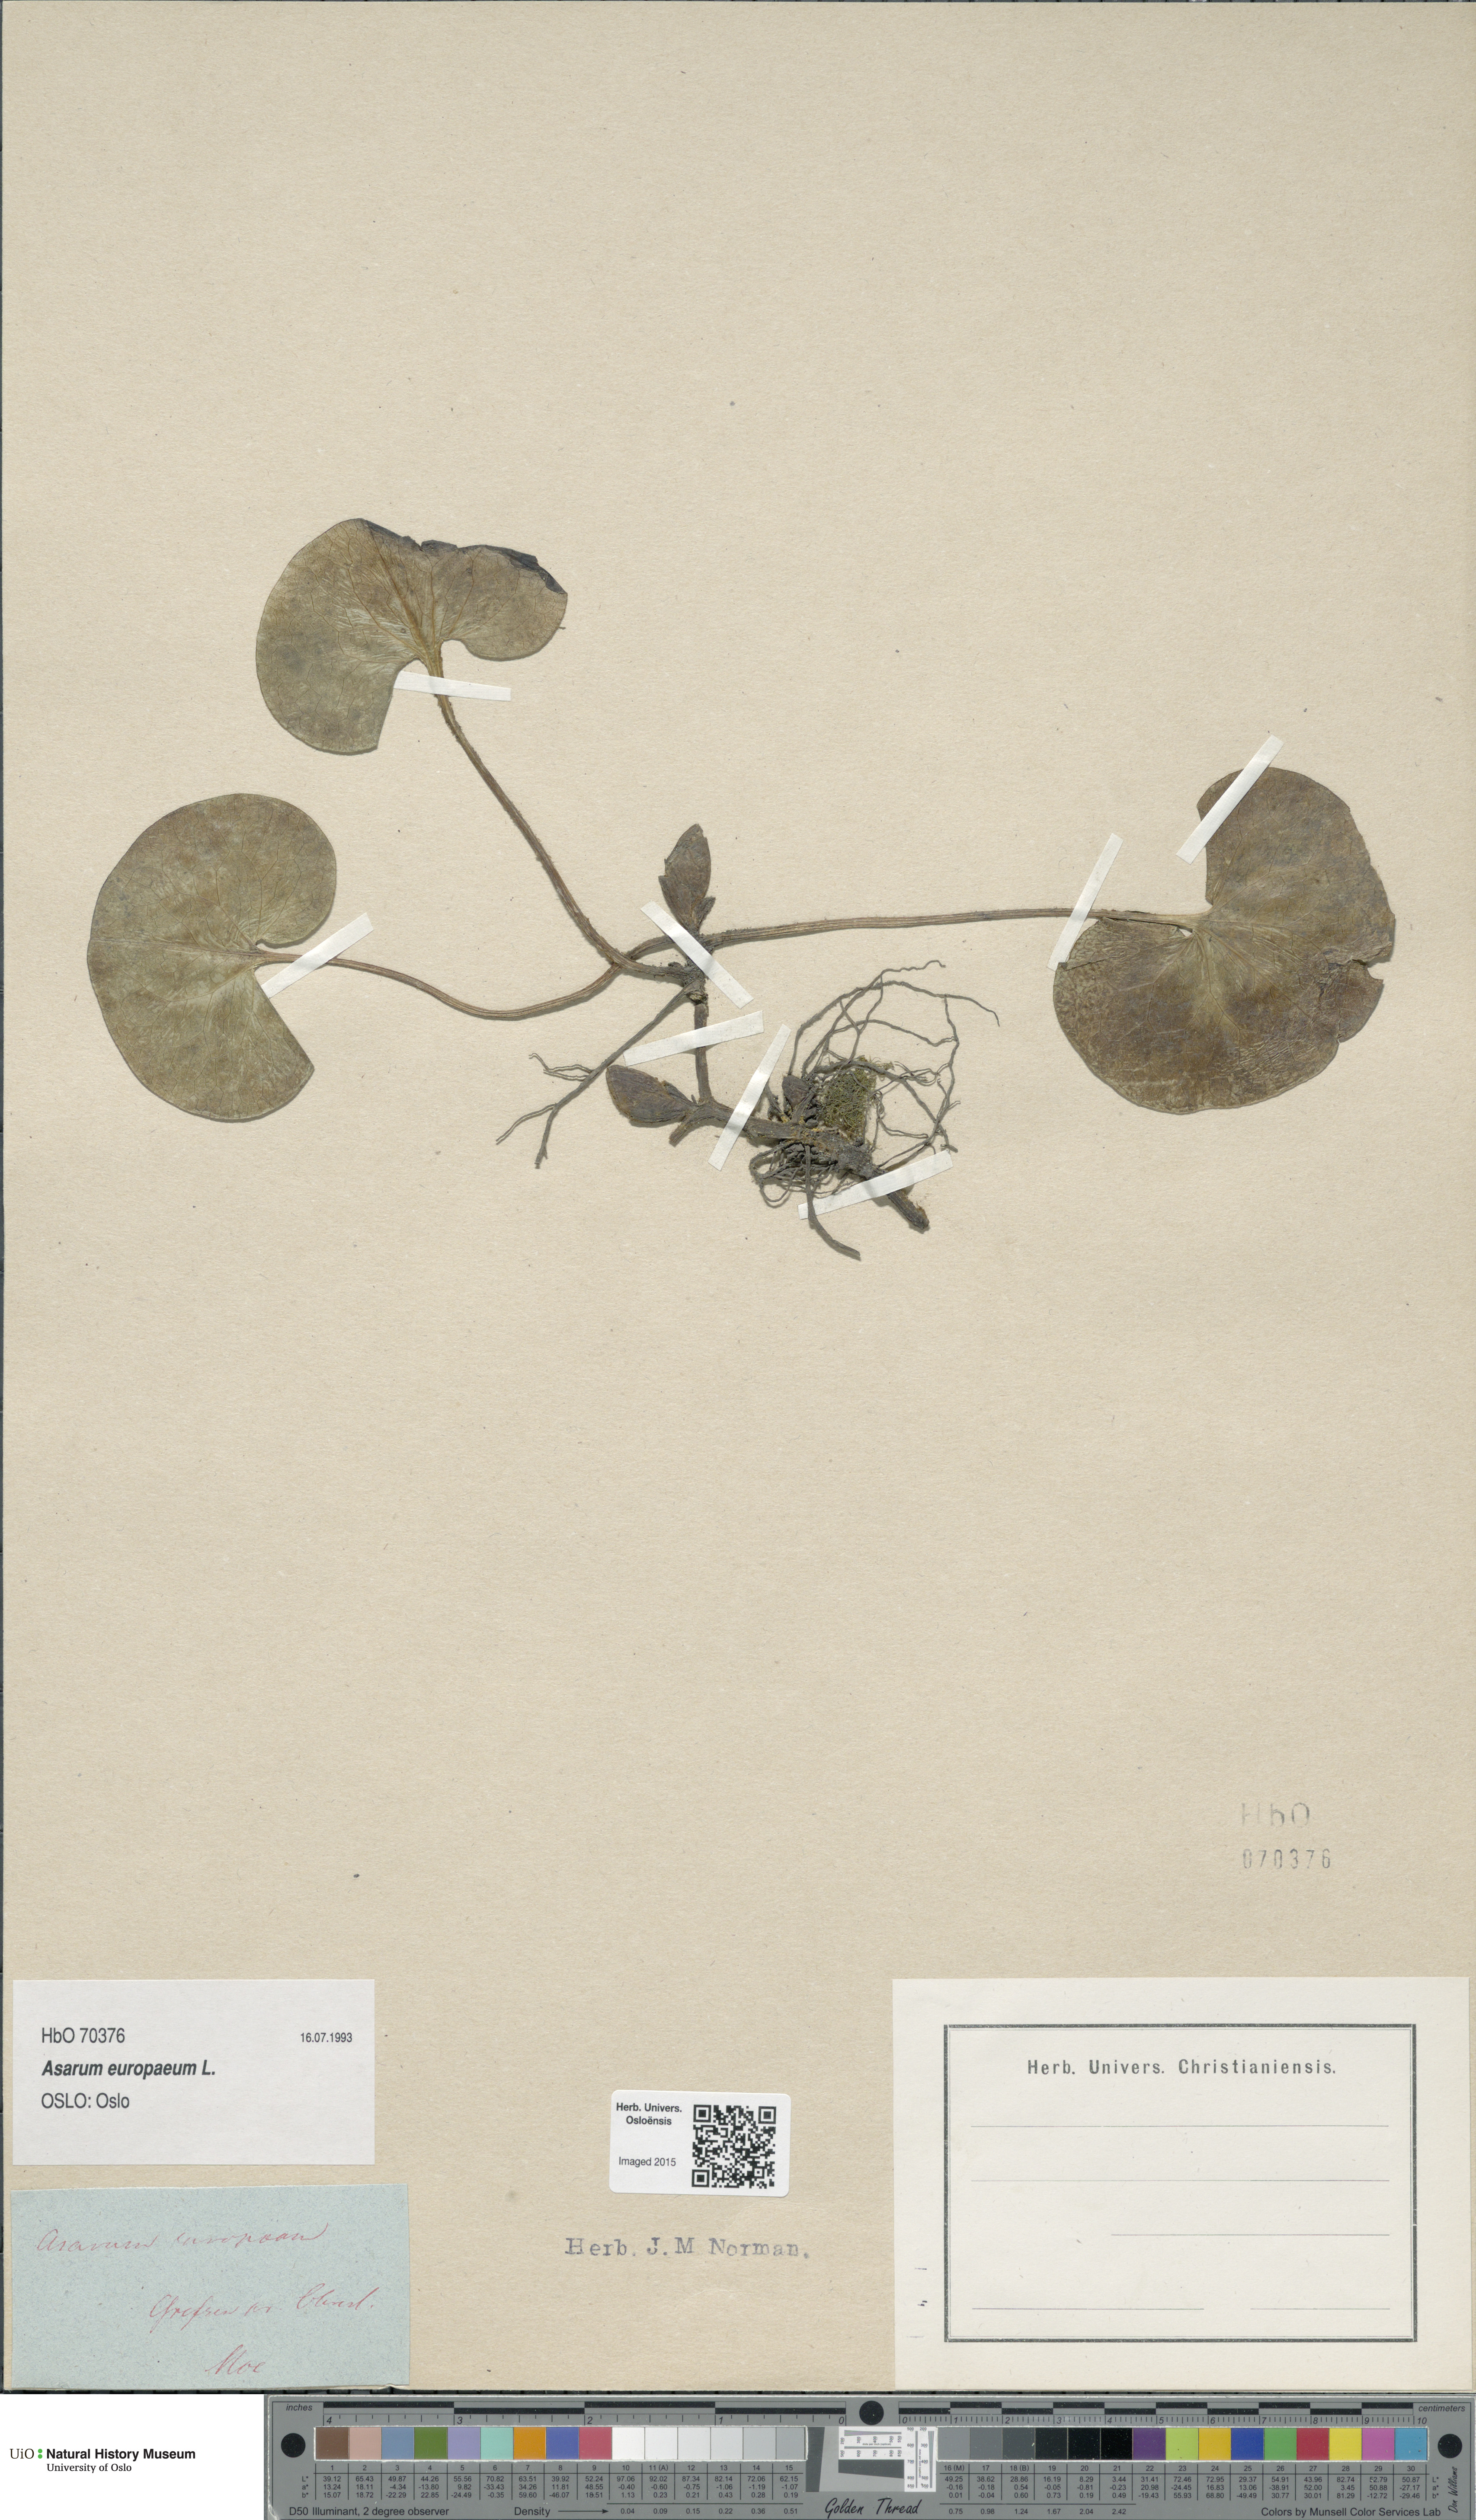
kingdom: Plantae
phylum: Tracheophyta
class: Magnoliopsida
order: Piperales
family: Aristolochiaceae
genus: Asarum
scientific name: Asarum europaeum
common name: Asarabacca
